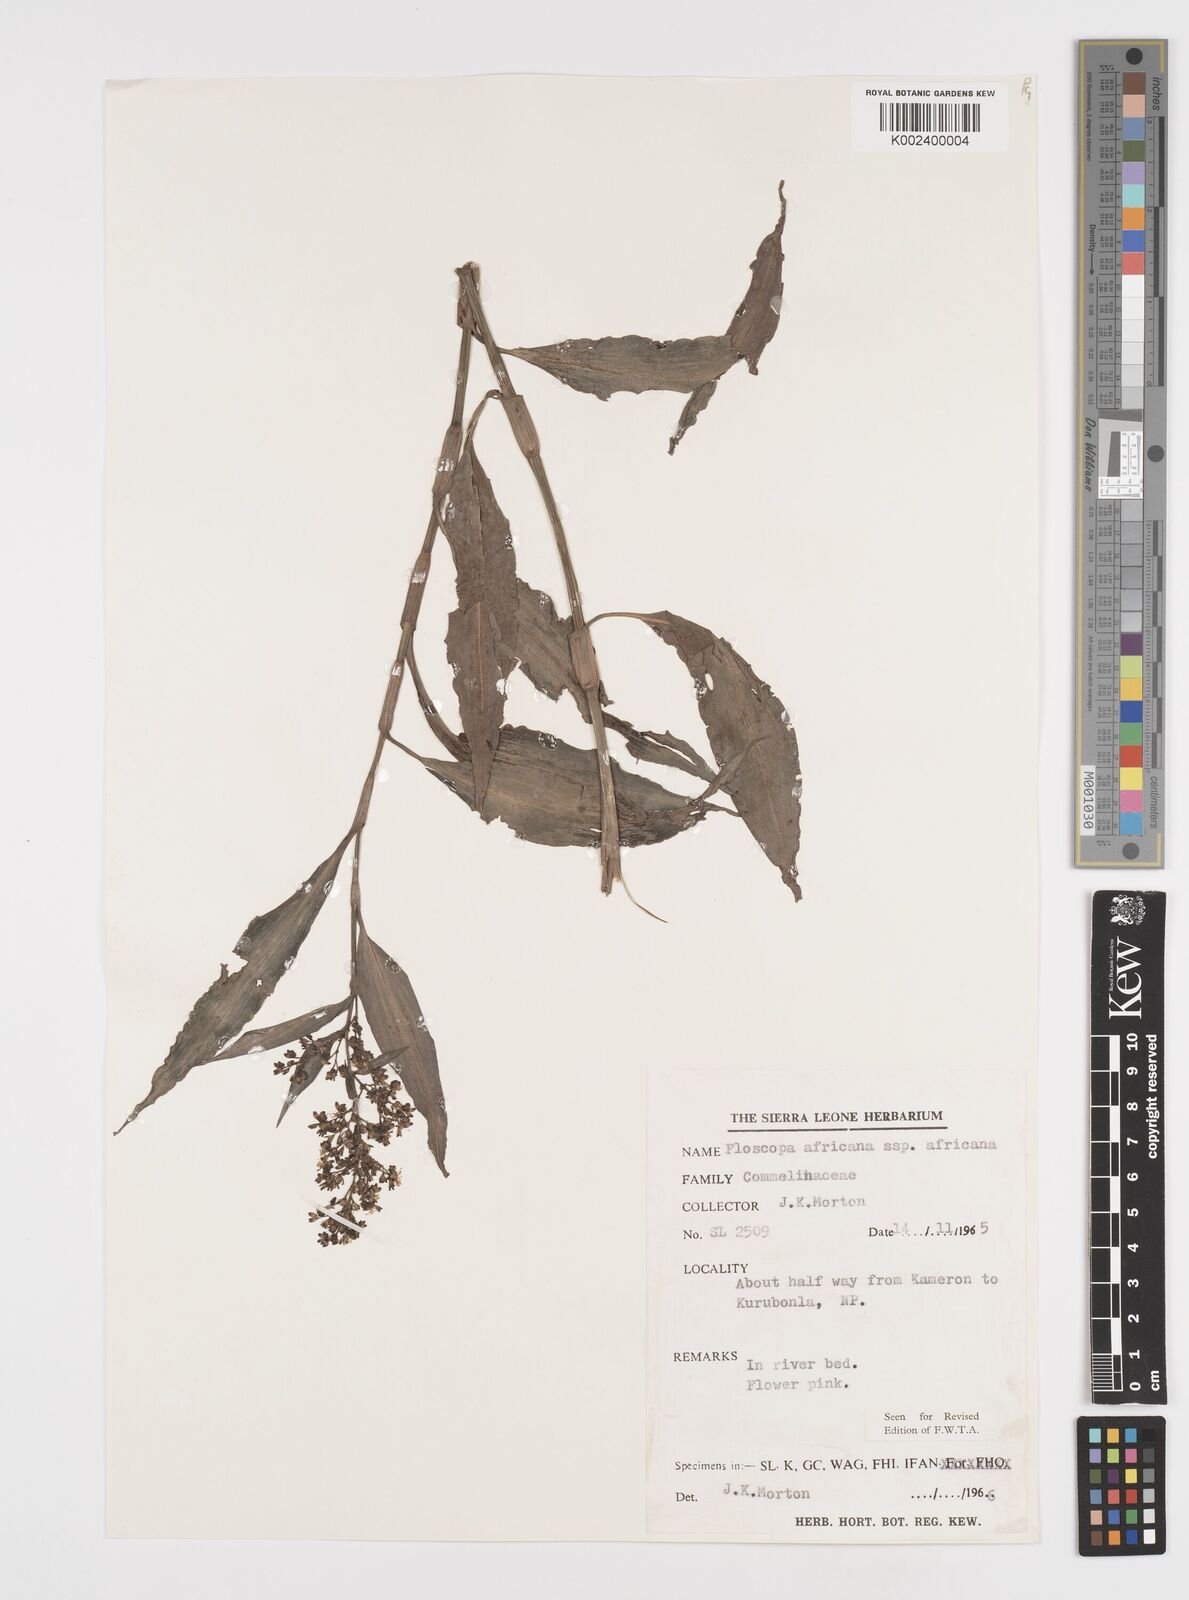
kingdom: Plantae
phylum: Tracheophyta
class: Liliopsida
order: Commelinales
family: Commelinaceae
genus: Floscopa
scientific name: Floscopa africana
